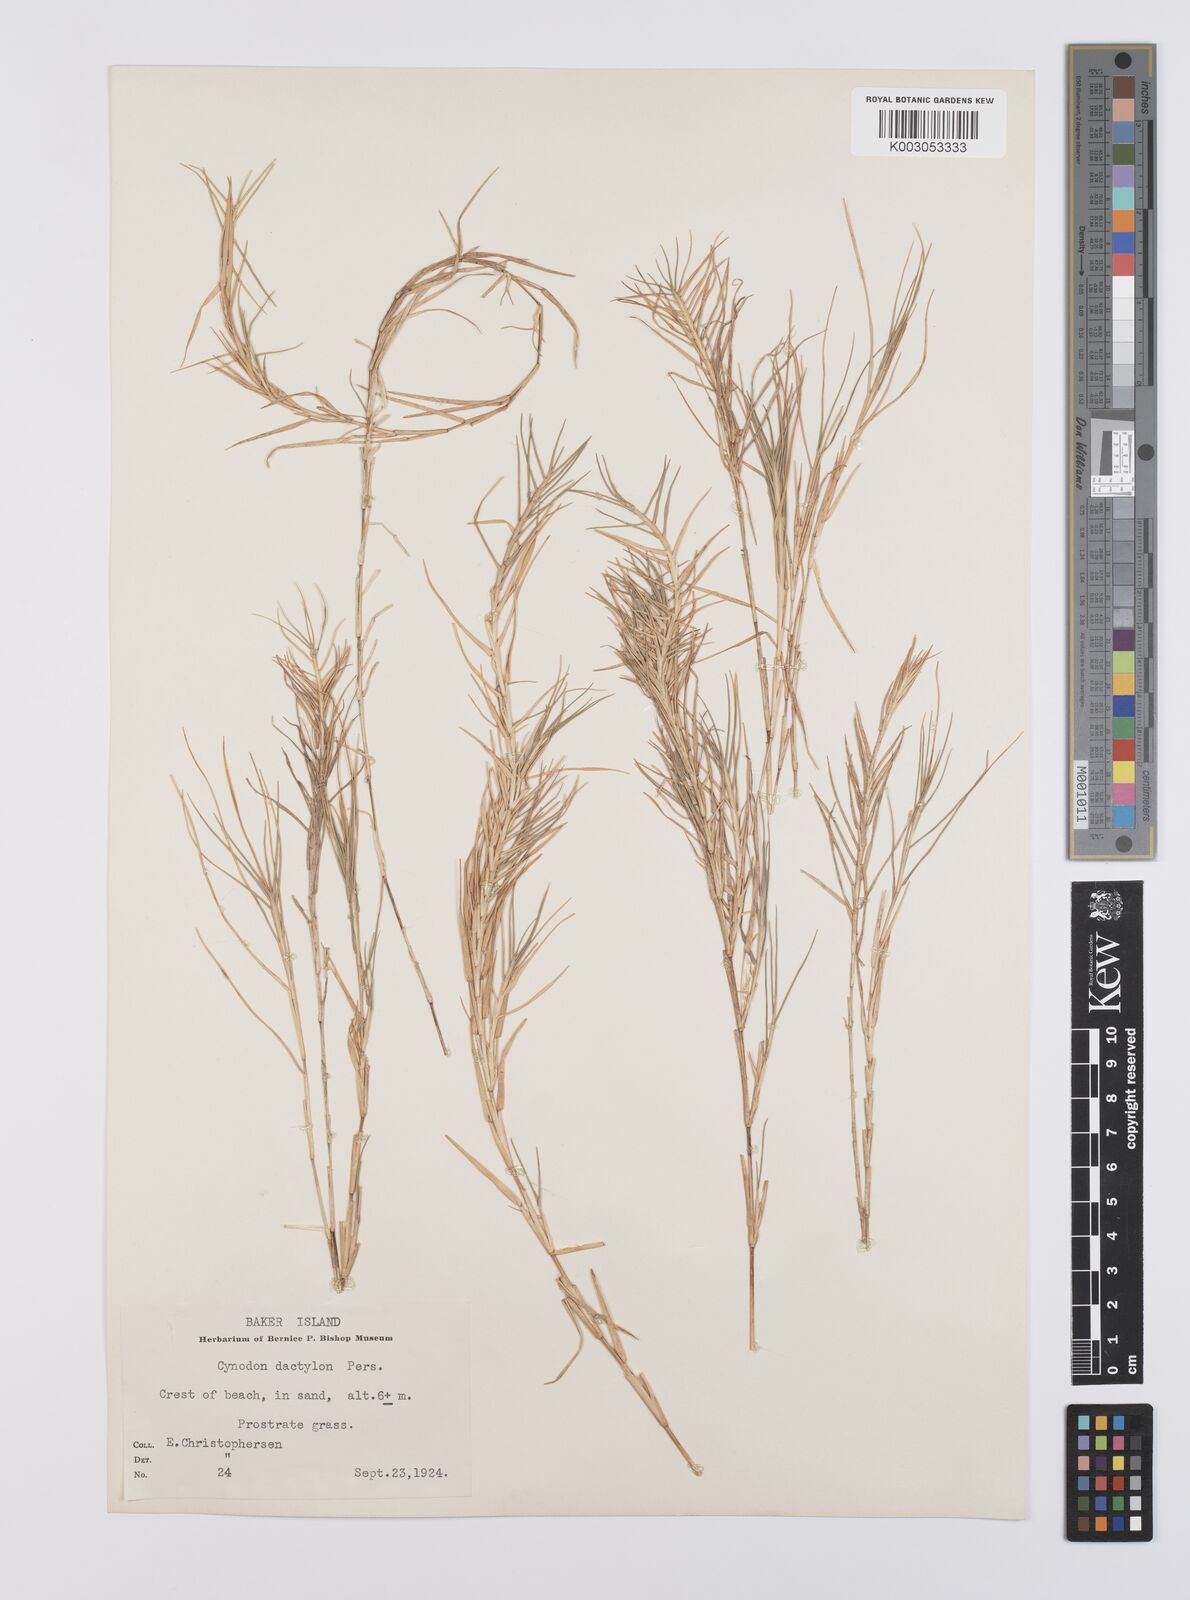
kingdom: Plantae
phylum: Tracheophyta
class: Liliopsida
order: Poales
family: Poaceae
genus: Cynodon
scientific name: Cynodon dactylon
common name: Bermuda grass
